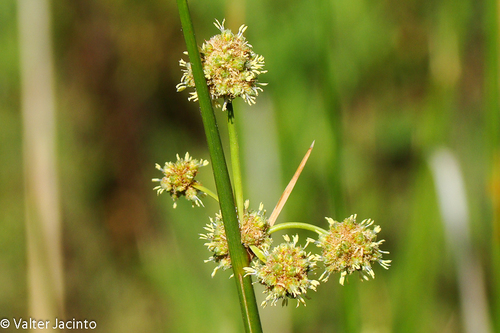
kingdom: Plantae
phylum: Tracheophyta
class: Liliopsida
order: Poales
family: Cyperaceae
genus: Scirpoides
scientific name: Scirpoides holoschoenus
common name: Round-headed club-rush
